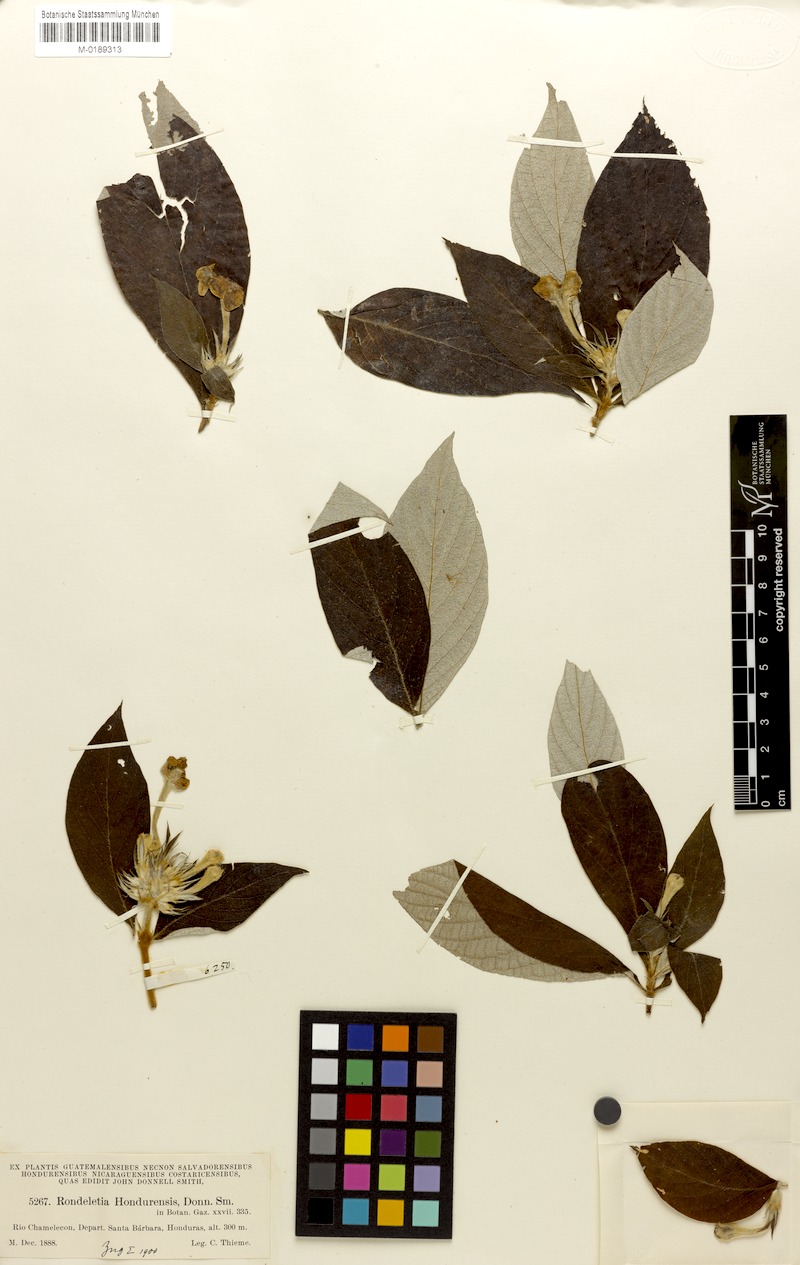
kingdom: Plantae
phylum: Tracheophyta
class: Magnoliopsida
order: Gentianales
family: Rubiaceae
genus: Arachnothryx
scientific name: Arachnothryx hondurensis
